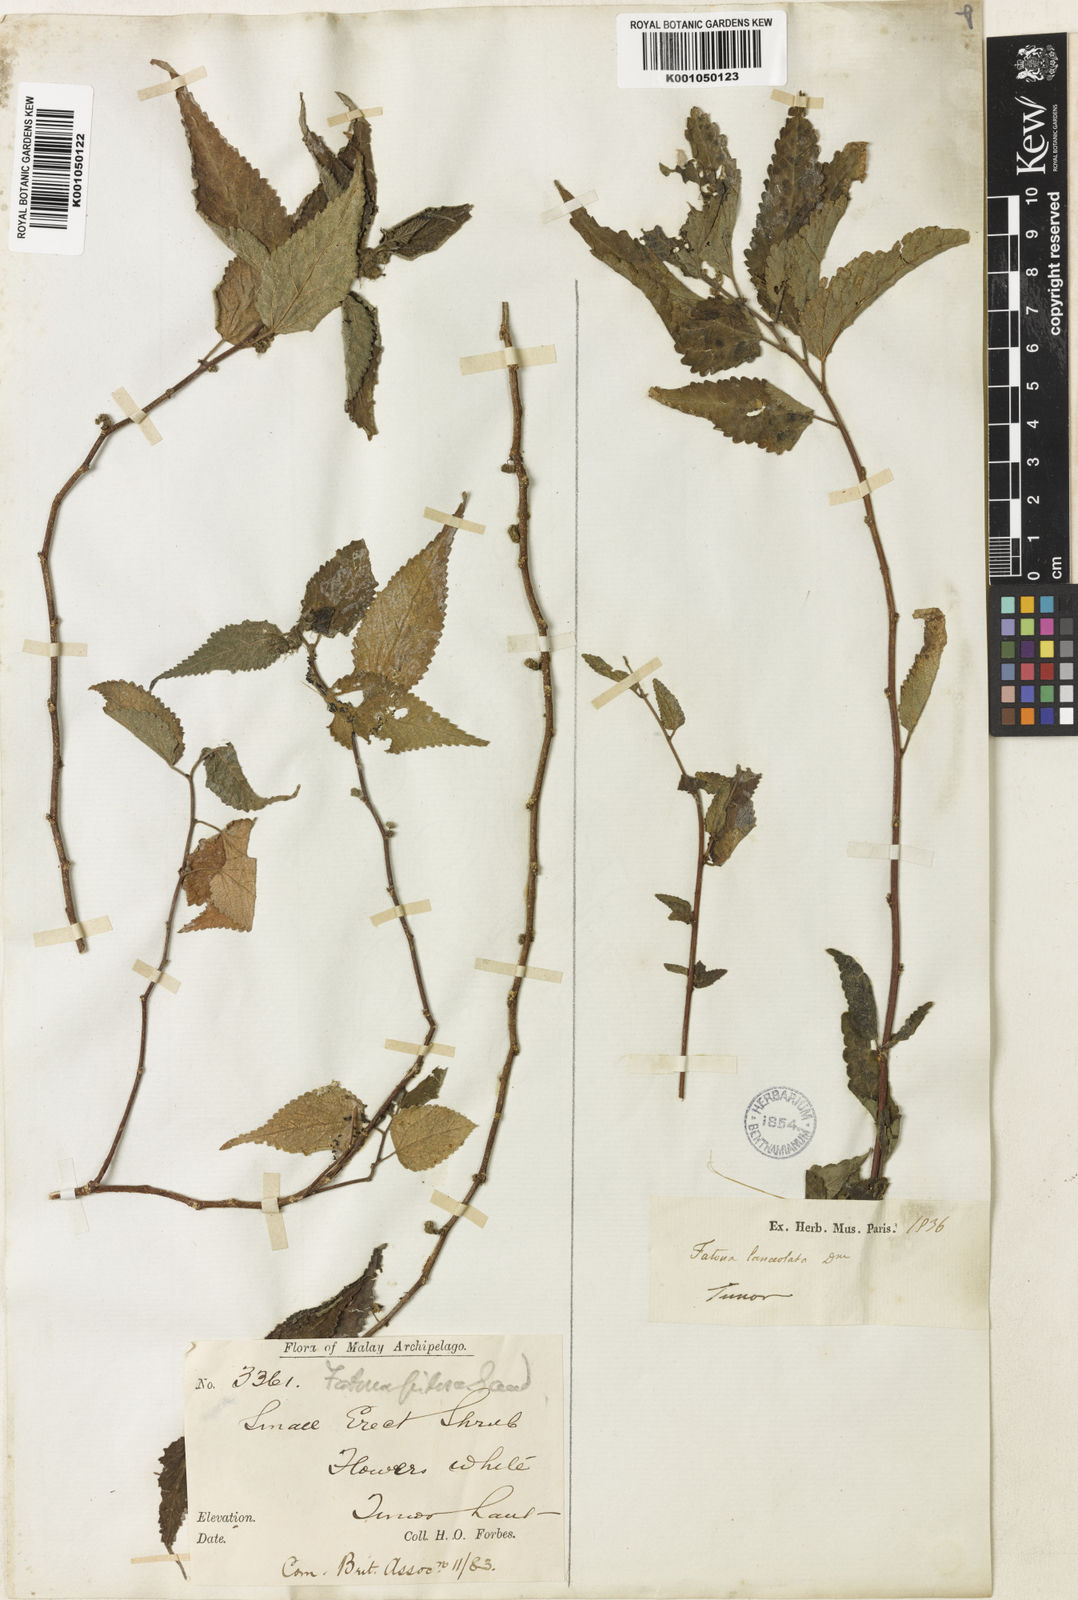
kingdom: Plantae
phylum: Tracheophyta
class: Magnoliopsida
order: Rosales
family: Moraceae
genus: Fatoua
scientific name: Fatoua villosa
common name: Hairy crabweed
